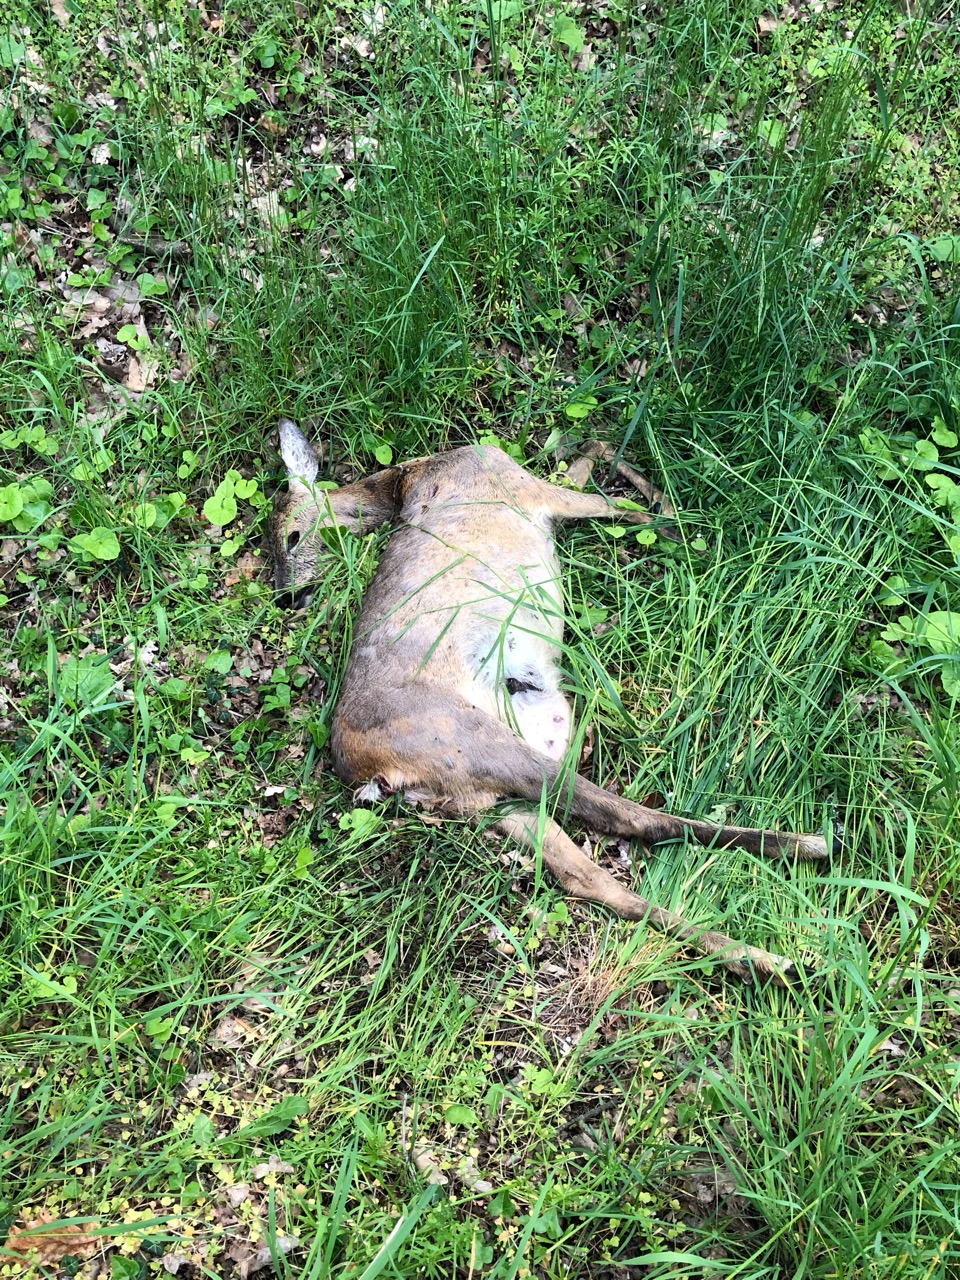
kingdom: Animalia
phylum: Chordata
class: Mammalia
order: Artiodactyla
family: Cervidae
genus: Capreolus
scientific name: Capreolus capreolus
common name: Western roe deer
